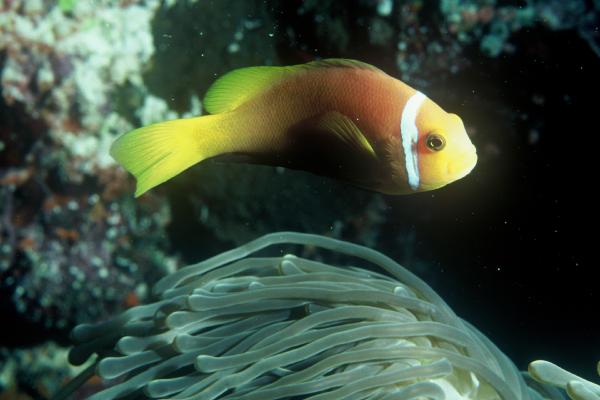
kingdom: Animalia
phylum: Chordata
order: Perciformes
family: Pomacentridae
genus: Amphiprion
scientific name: Amphiprion nigripes
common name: Maldive anemonefish
